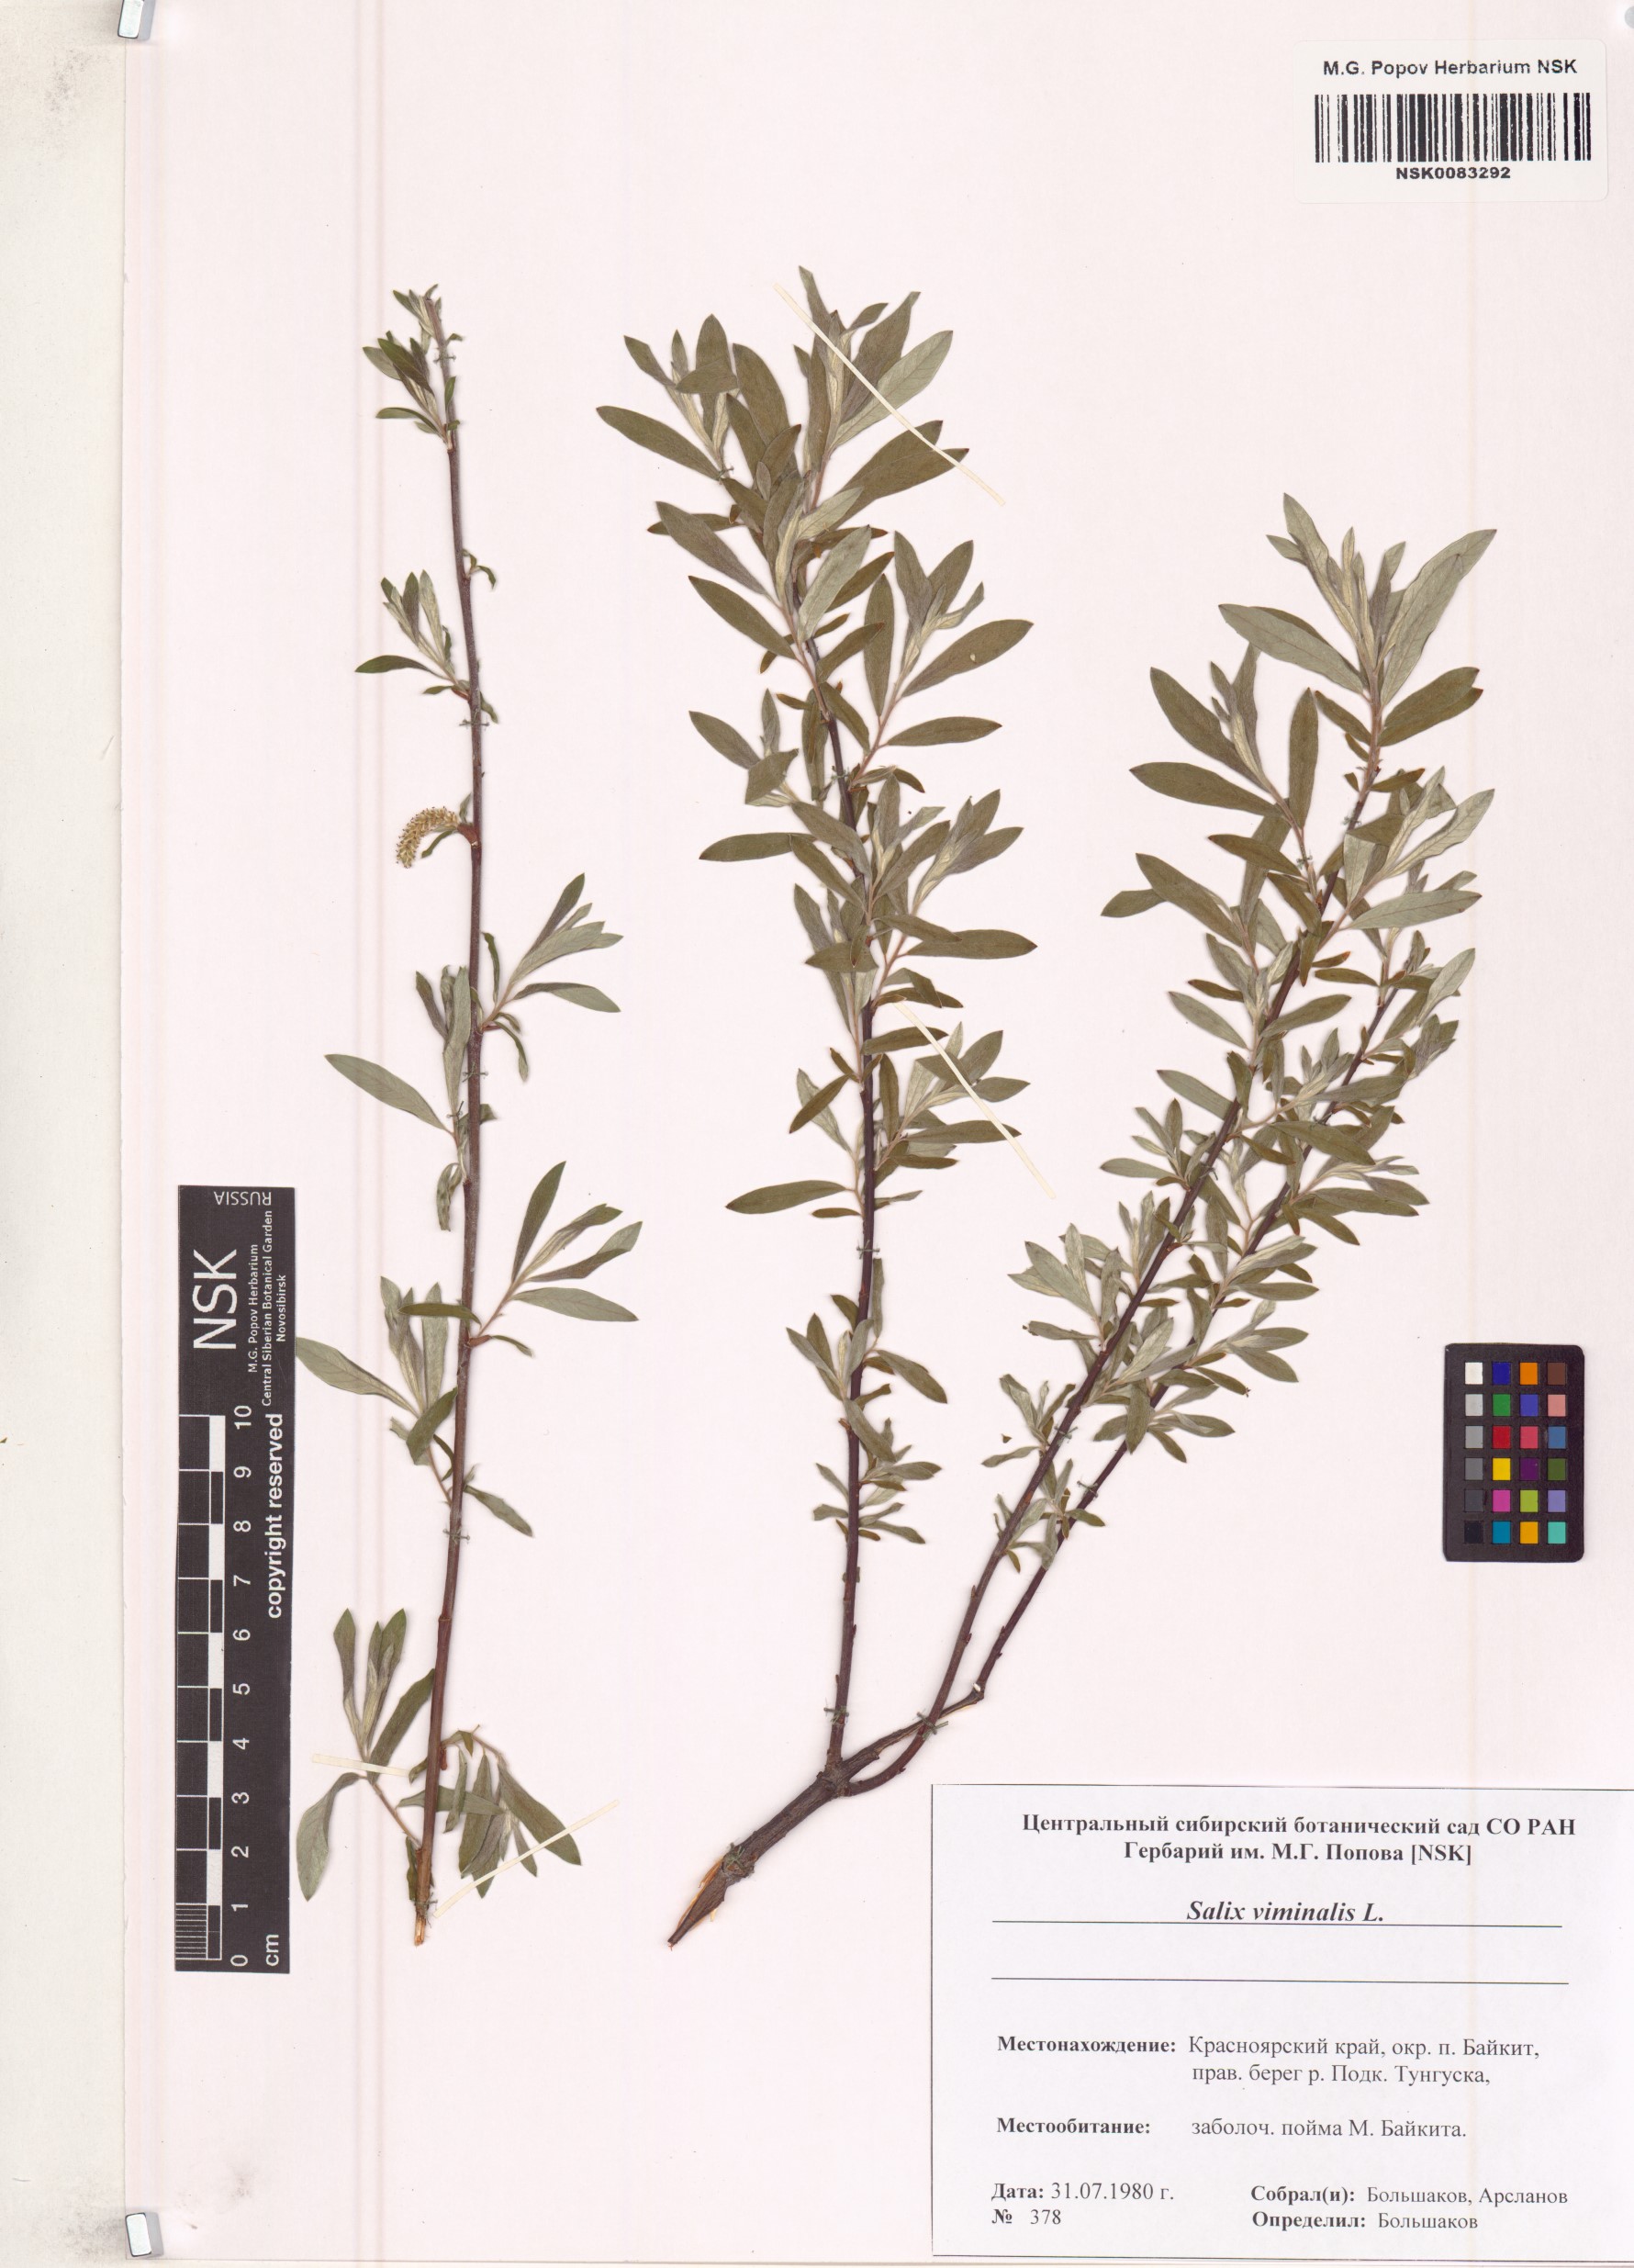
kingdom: Plantae
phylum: Tracheophyta
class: Magnoliopsida
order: Malpighiales
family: Salicaceae
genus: Salix
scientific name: Salix viminalis
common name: Osier
